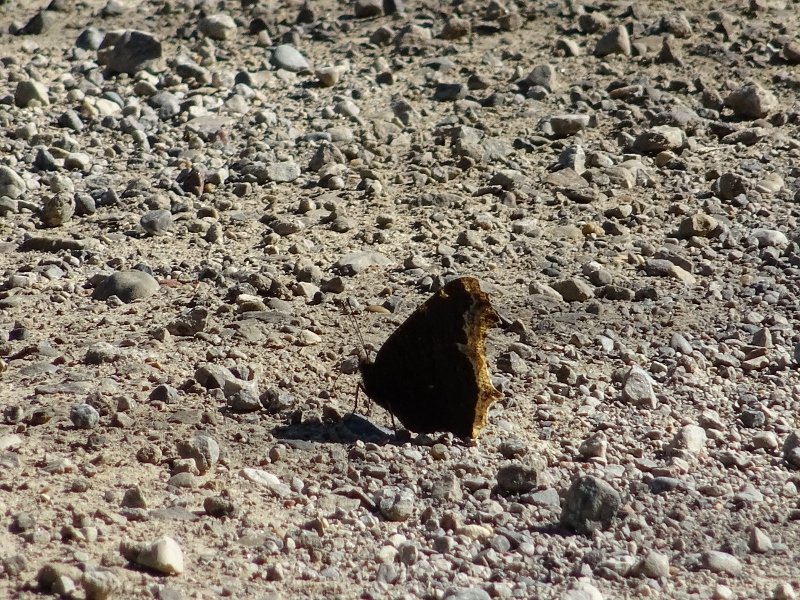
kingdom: Animalia
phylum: Arthropoda
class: Insecta
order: Lepidoptera
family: Nymphalidae
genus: Nymphalis
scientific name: Nymphalis antiopa
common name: Mourning Cloak
